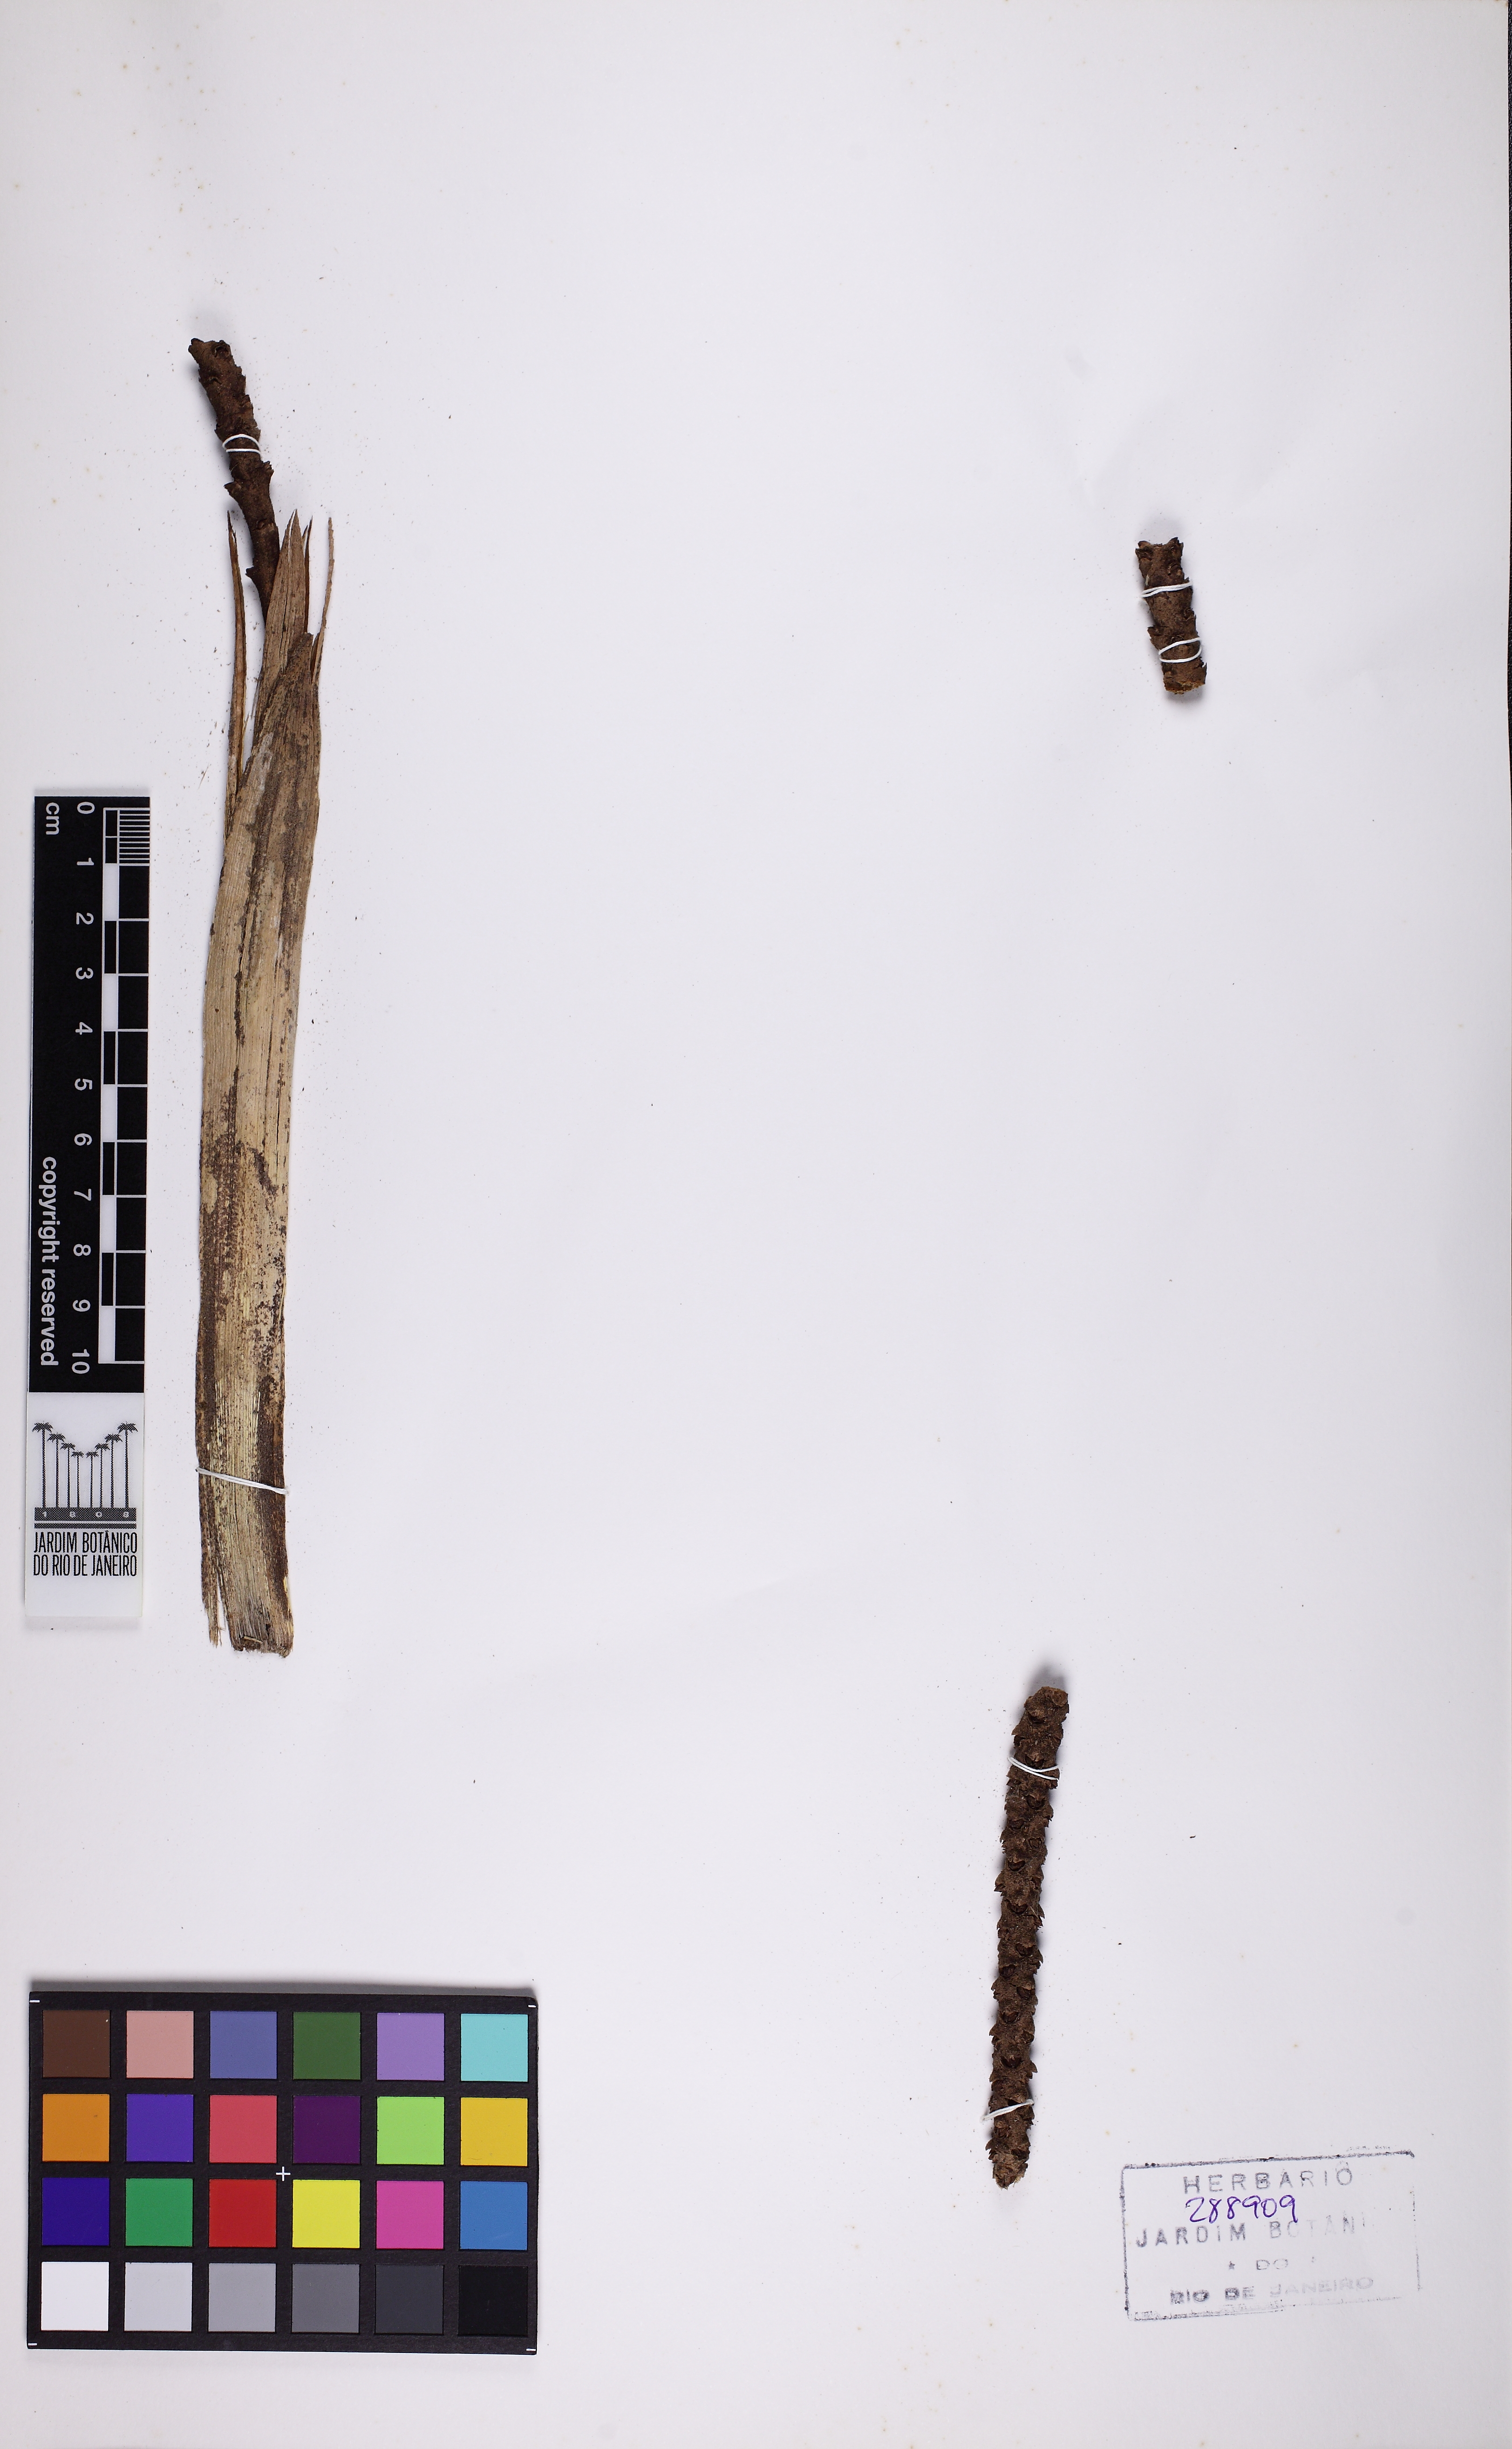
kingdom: Plantae
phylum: Tracheophyta
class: Liliopsida
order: Arecales
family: Arecaceae
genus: Geonoma
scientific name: Geonoma pohliana
